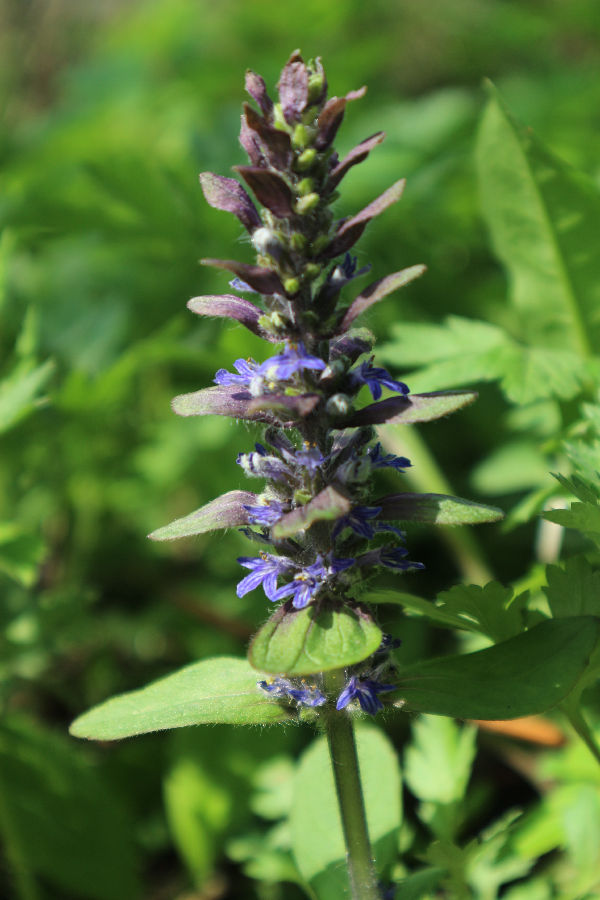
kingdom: Plantae
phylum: Tracheophyta
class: Magnoliopsida
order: Lamiales
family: Lamiaceae
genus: Ajuga
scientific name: Ajuga reptans
